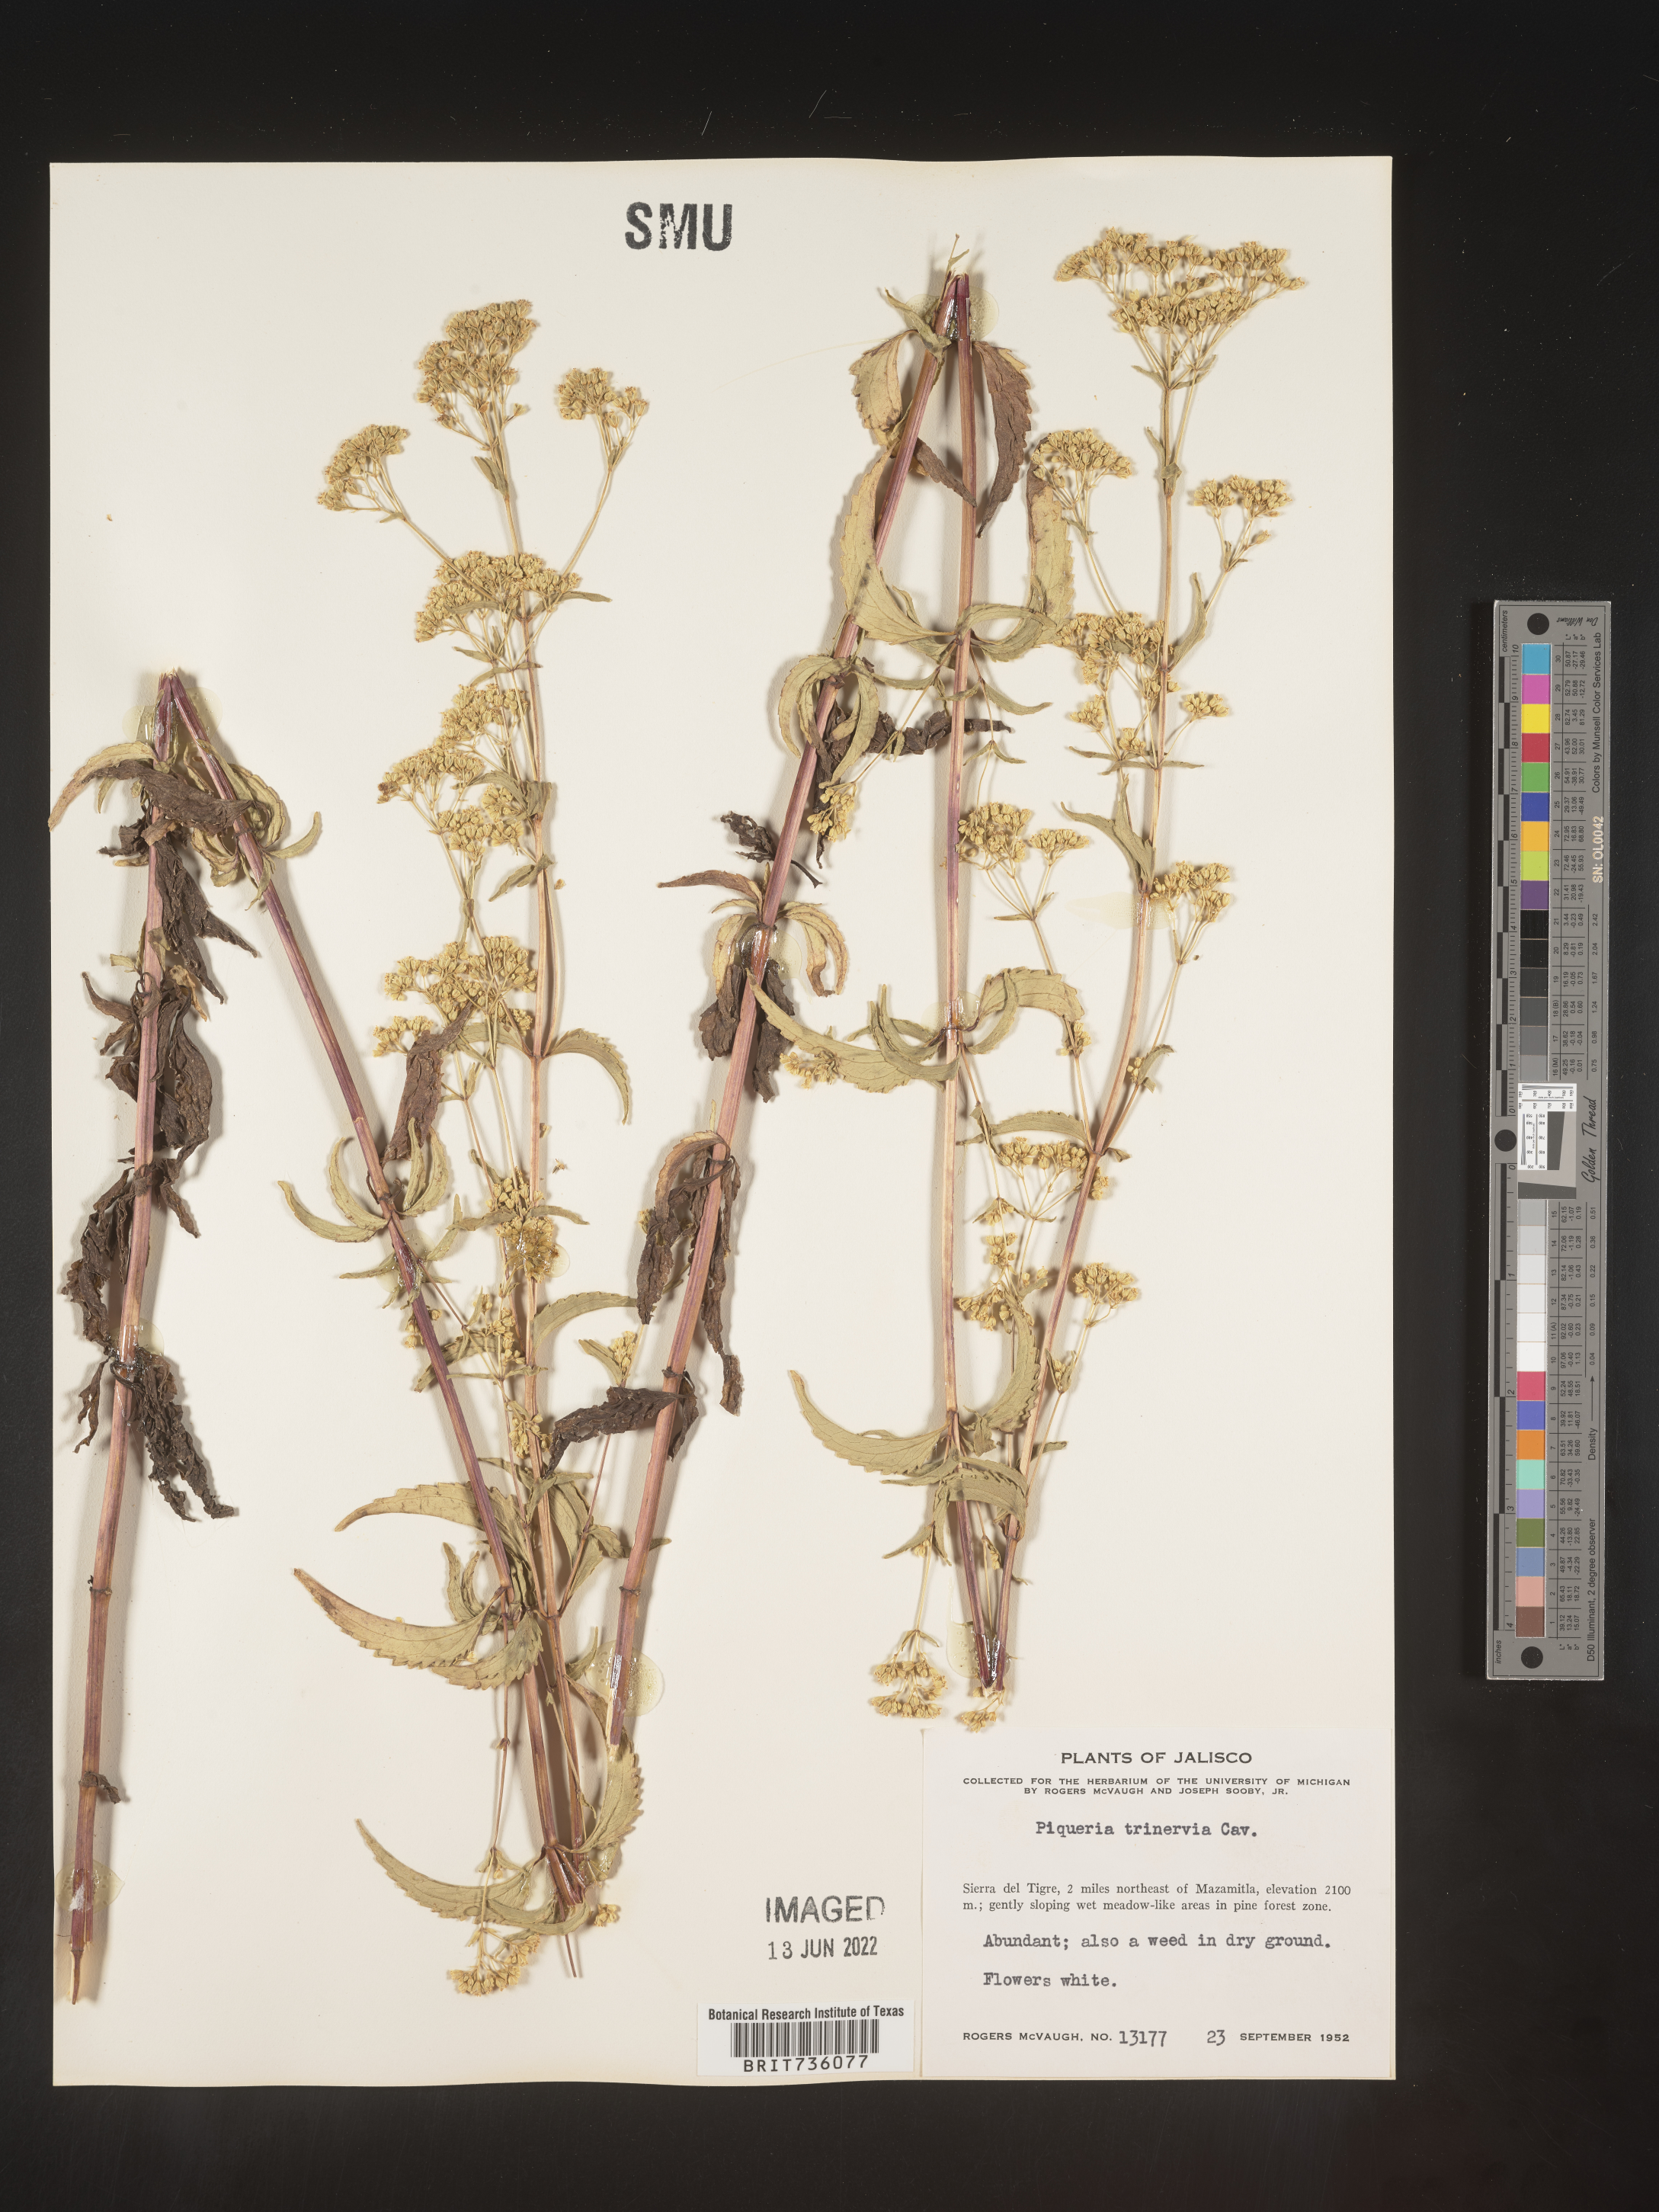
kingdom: Plantae
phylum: Tracheophyta
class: Magnoliopsida
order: Asterales
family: Asteraceae
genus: Piqueria
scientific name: Piqueria
